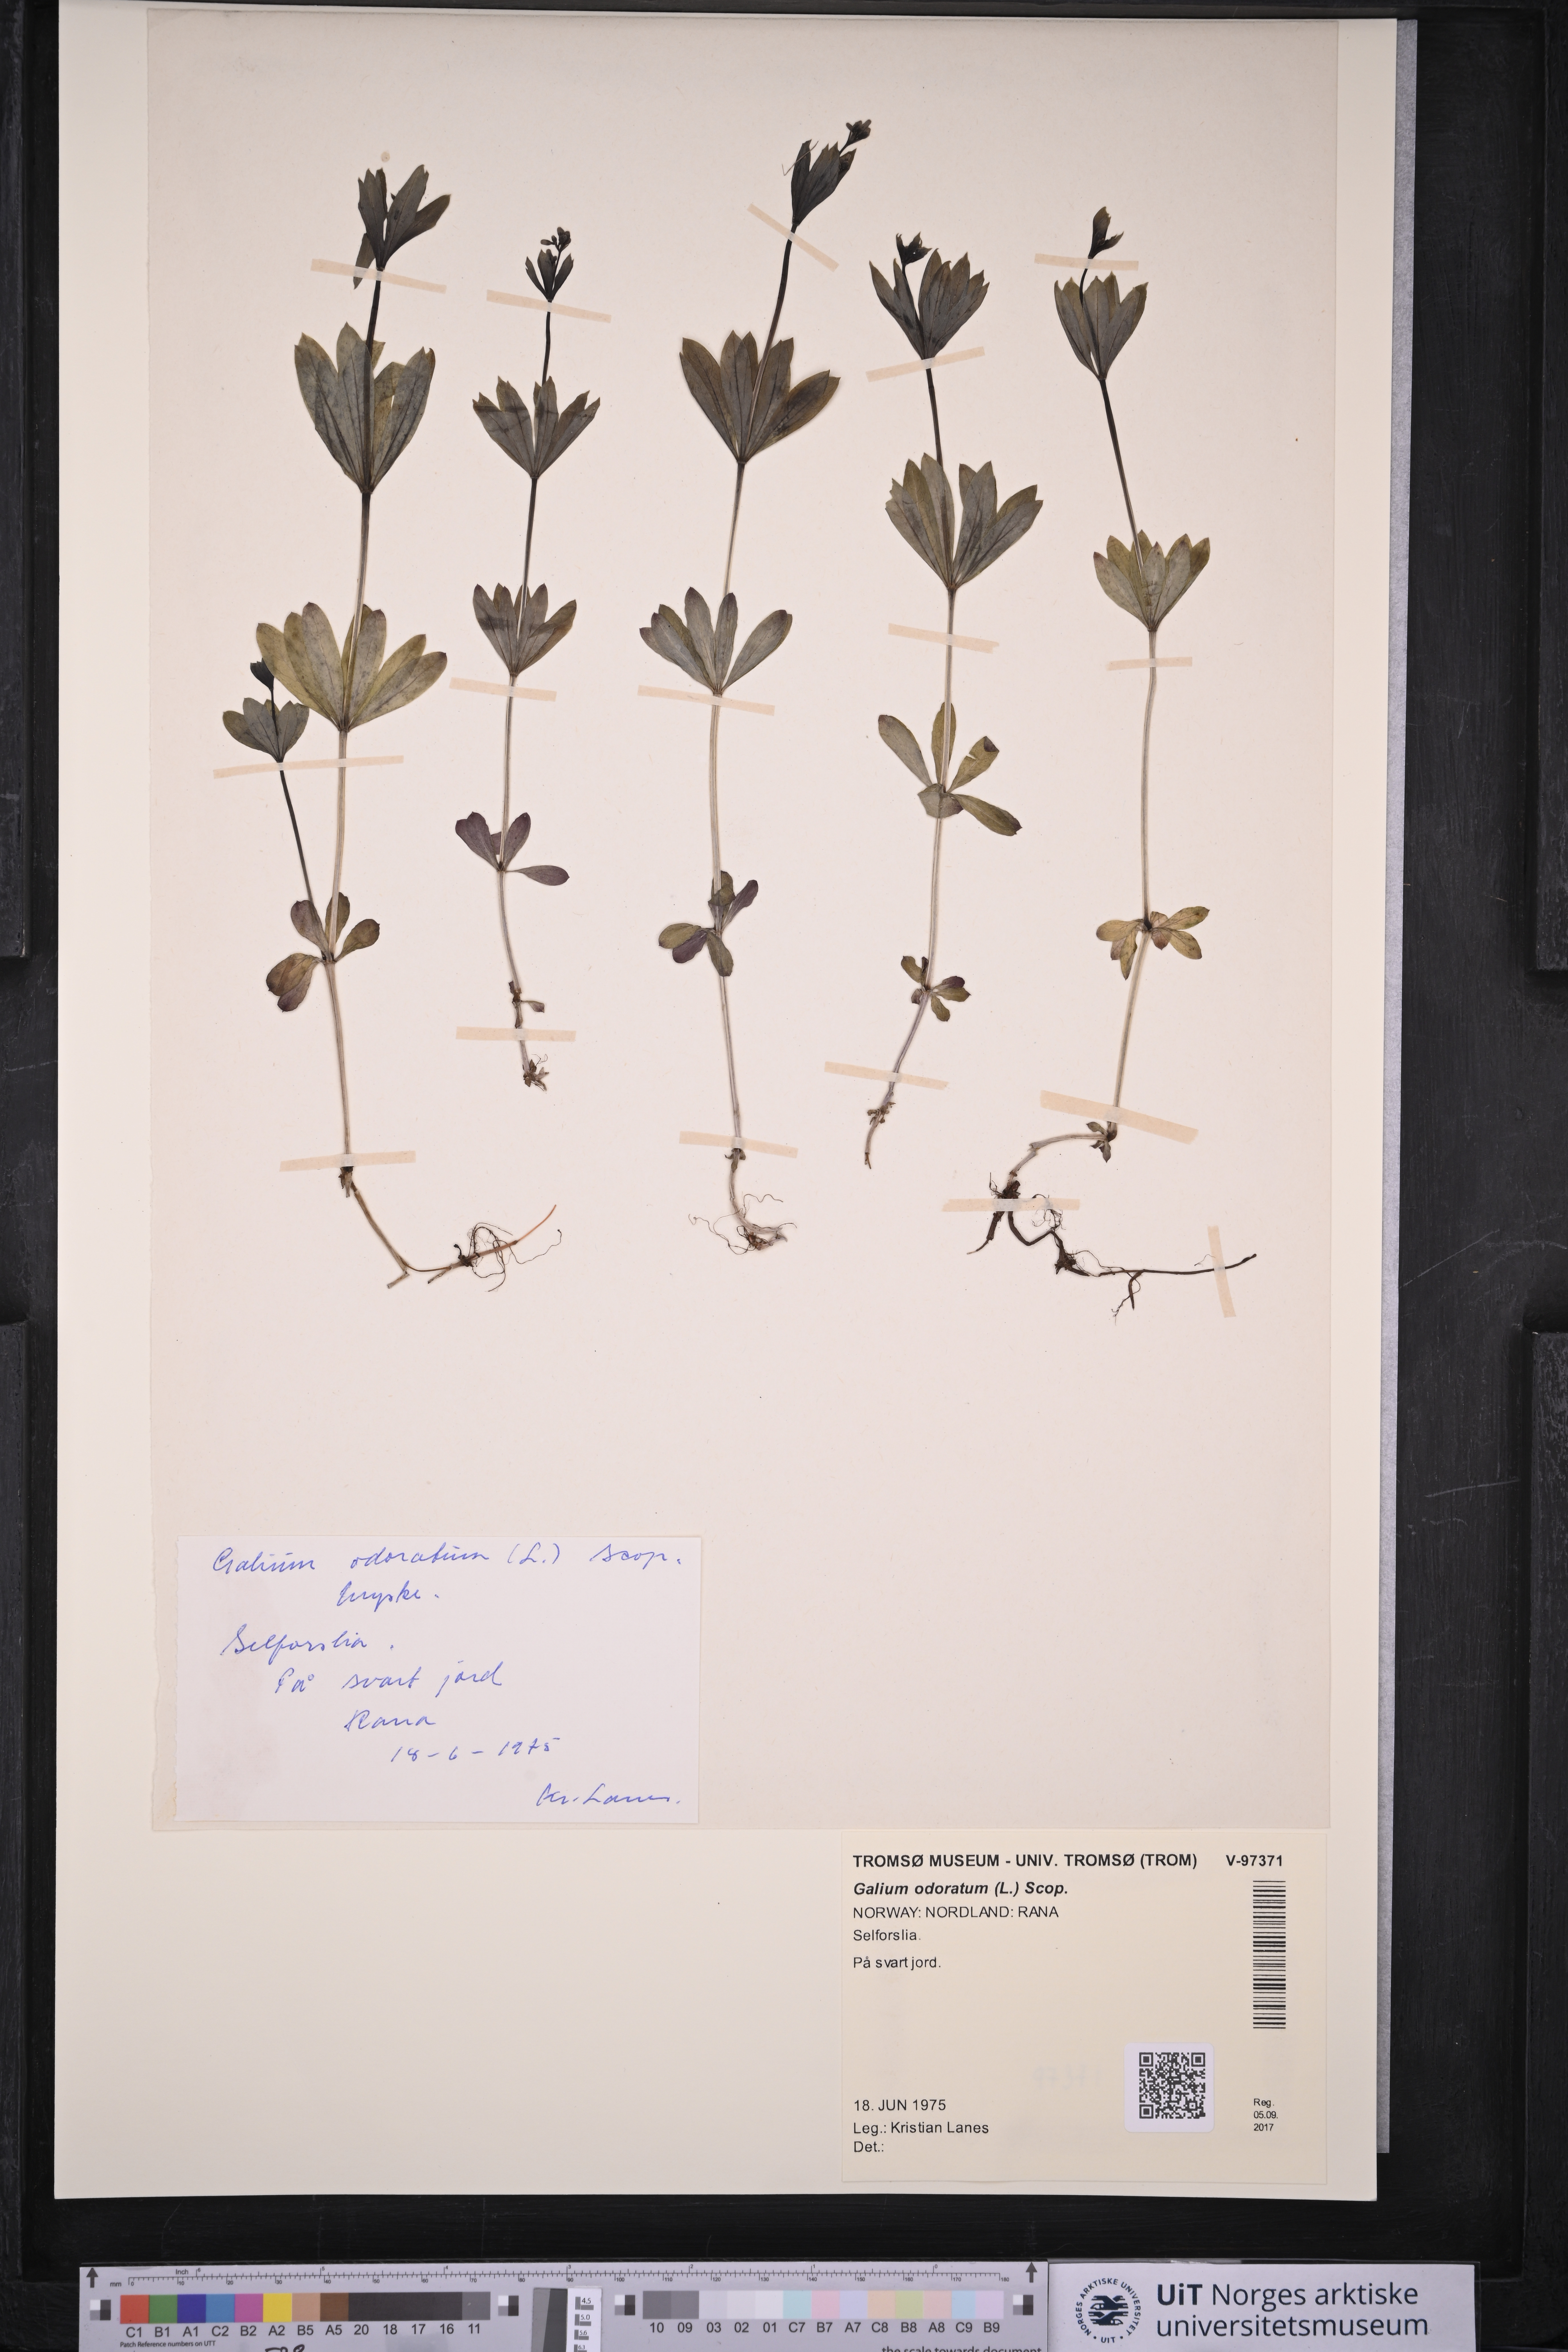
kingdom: Plantae
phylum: Tracheophyta
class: Magnoliopsida
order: Gentianales
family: Rubiaceae
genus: Galium
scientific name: Galium odoratum
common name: Sweet woodruff
